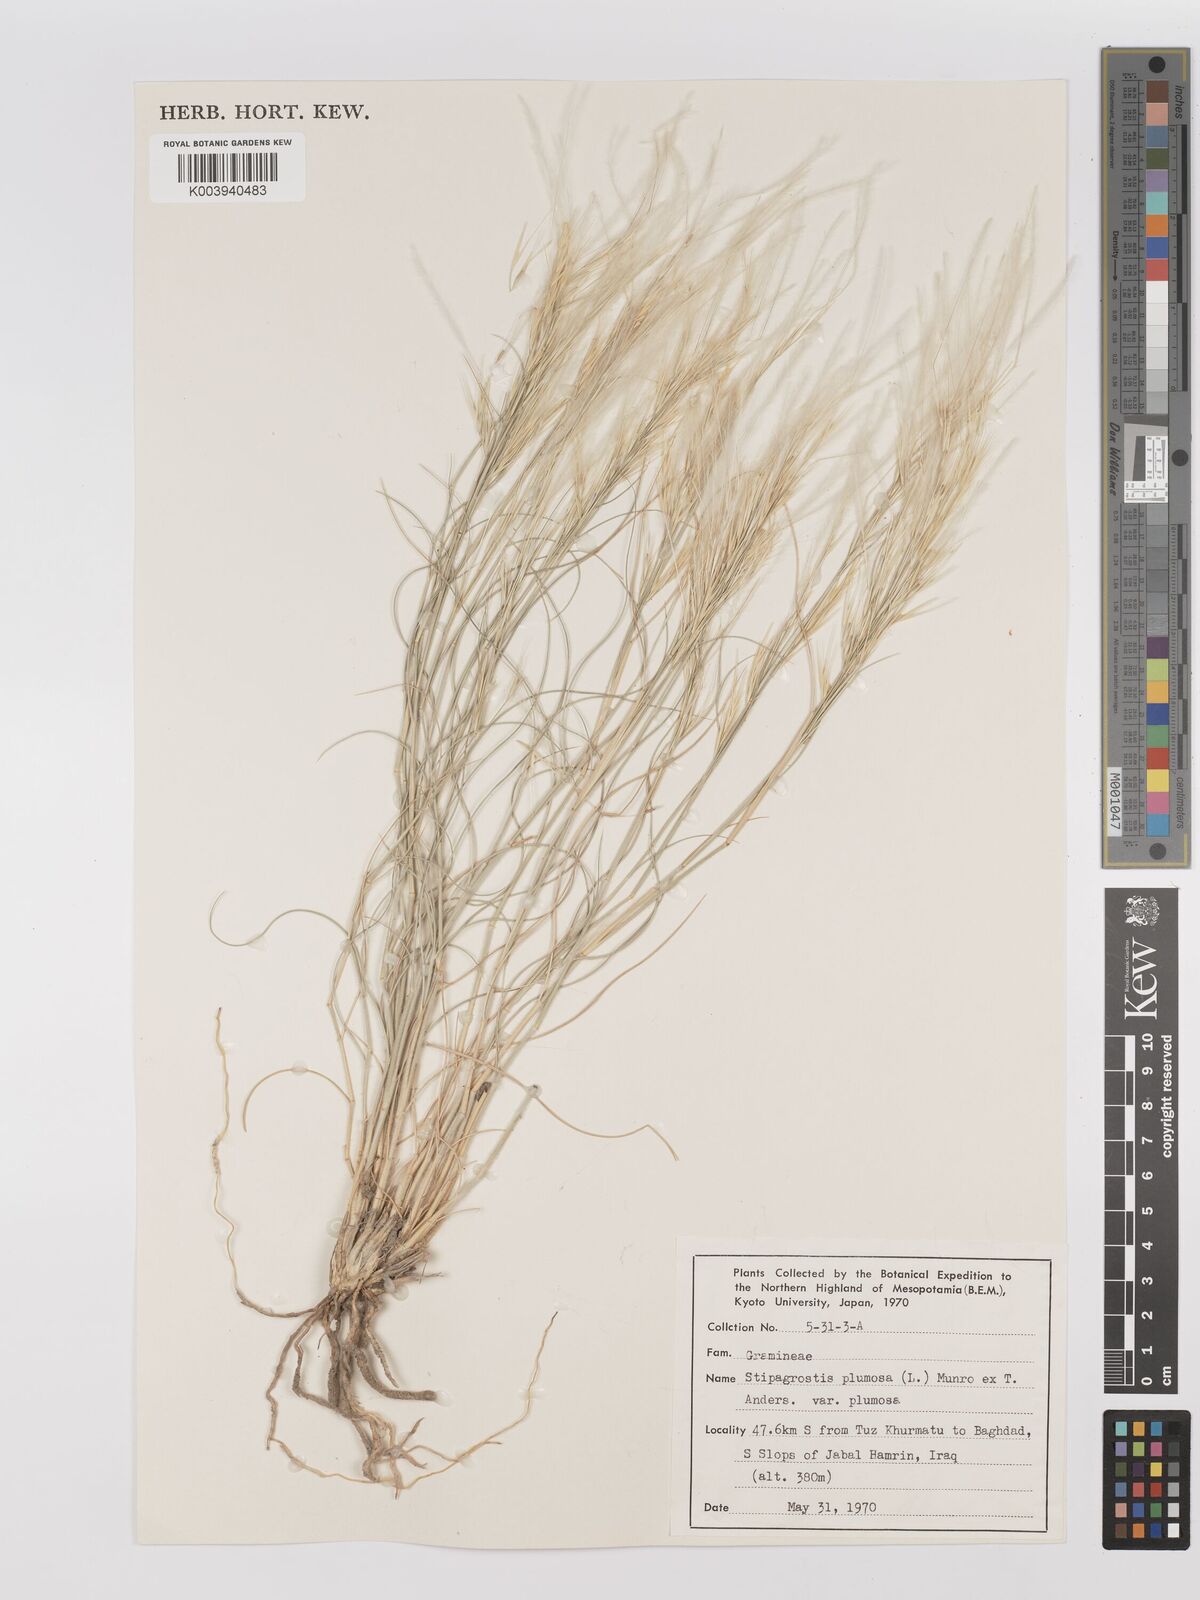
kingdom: Plantae
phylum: Tracheophyta
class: Liliopsida
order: Poales
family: Poaceae
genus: Stipagrostis
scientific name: Stipagrostis plumosa
